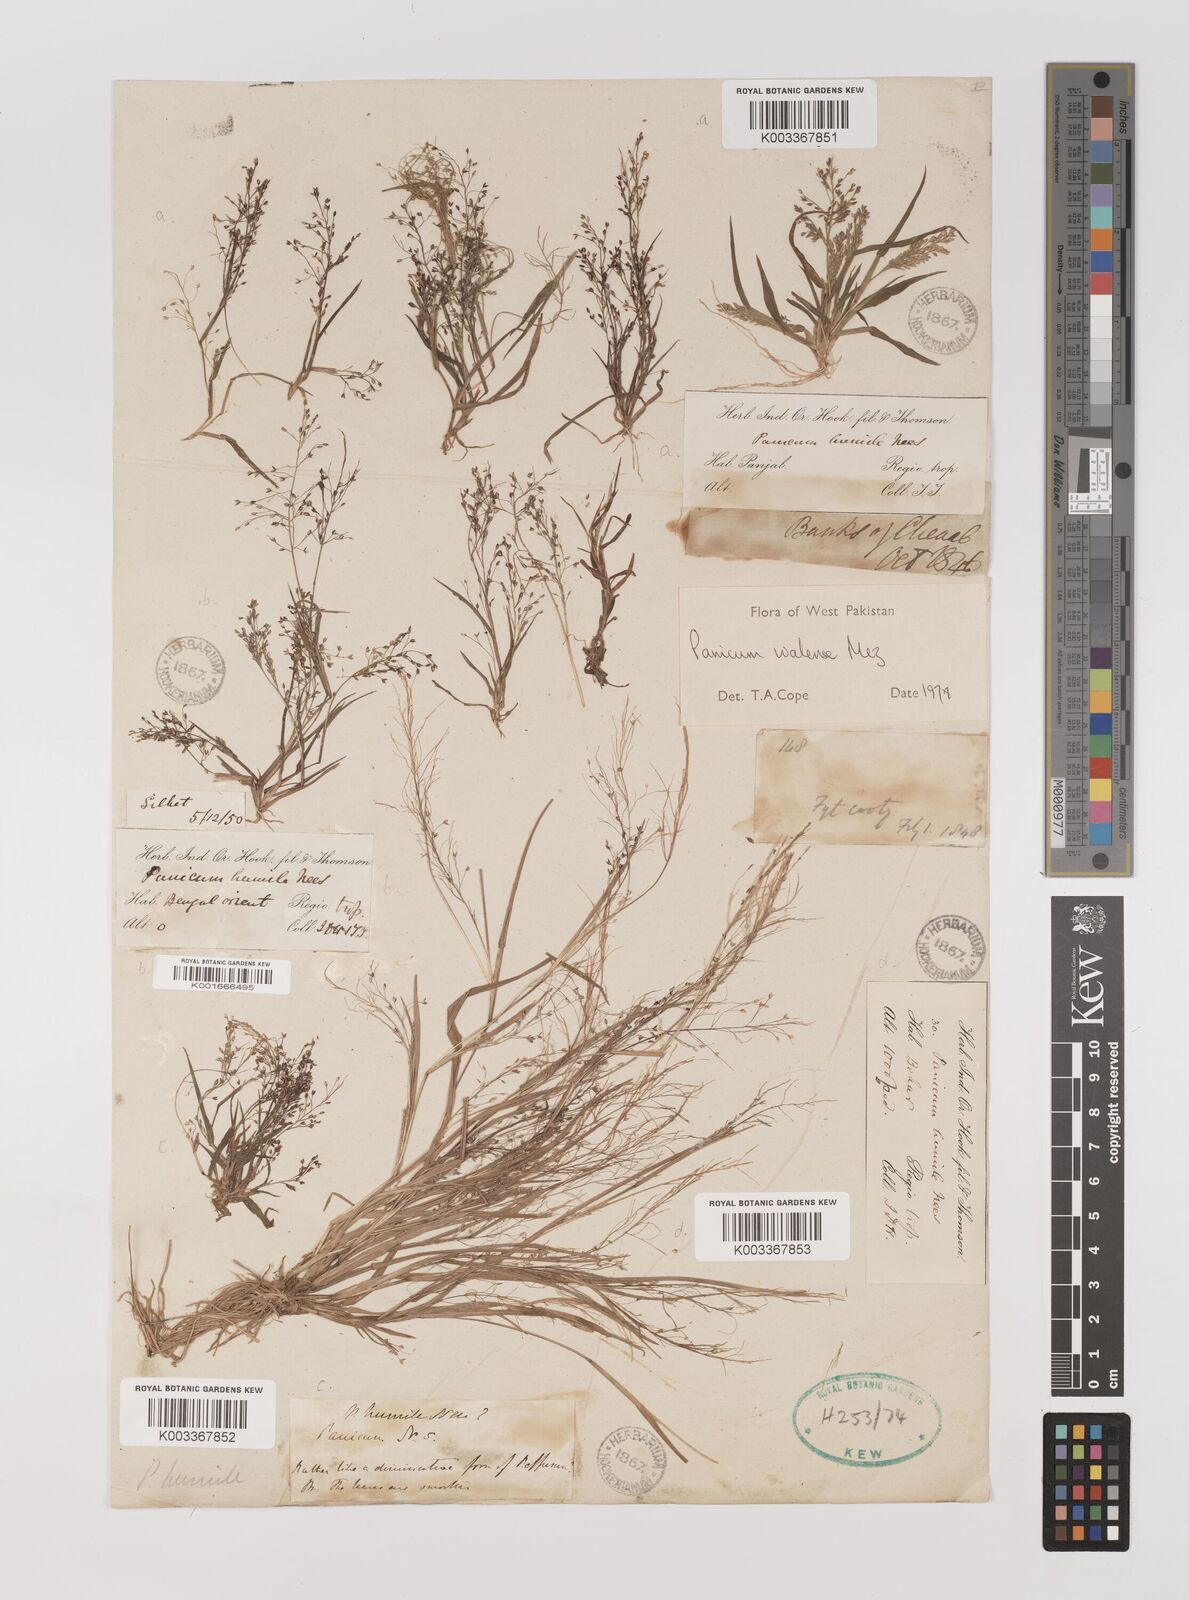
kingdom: Plantae
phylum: Tracheophyta
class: Liliopsida
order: Poales
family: Poaceae
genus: Panicum
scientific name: Panicum humile
